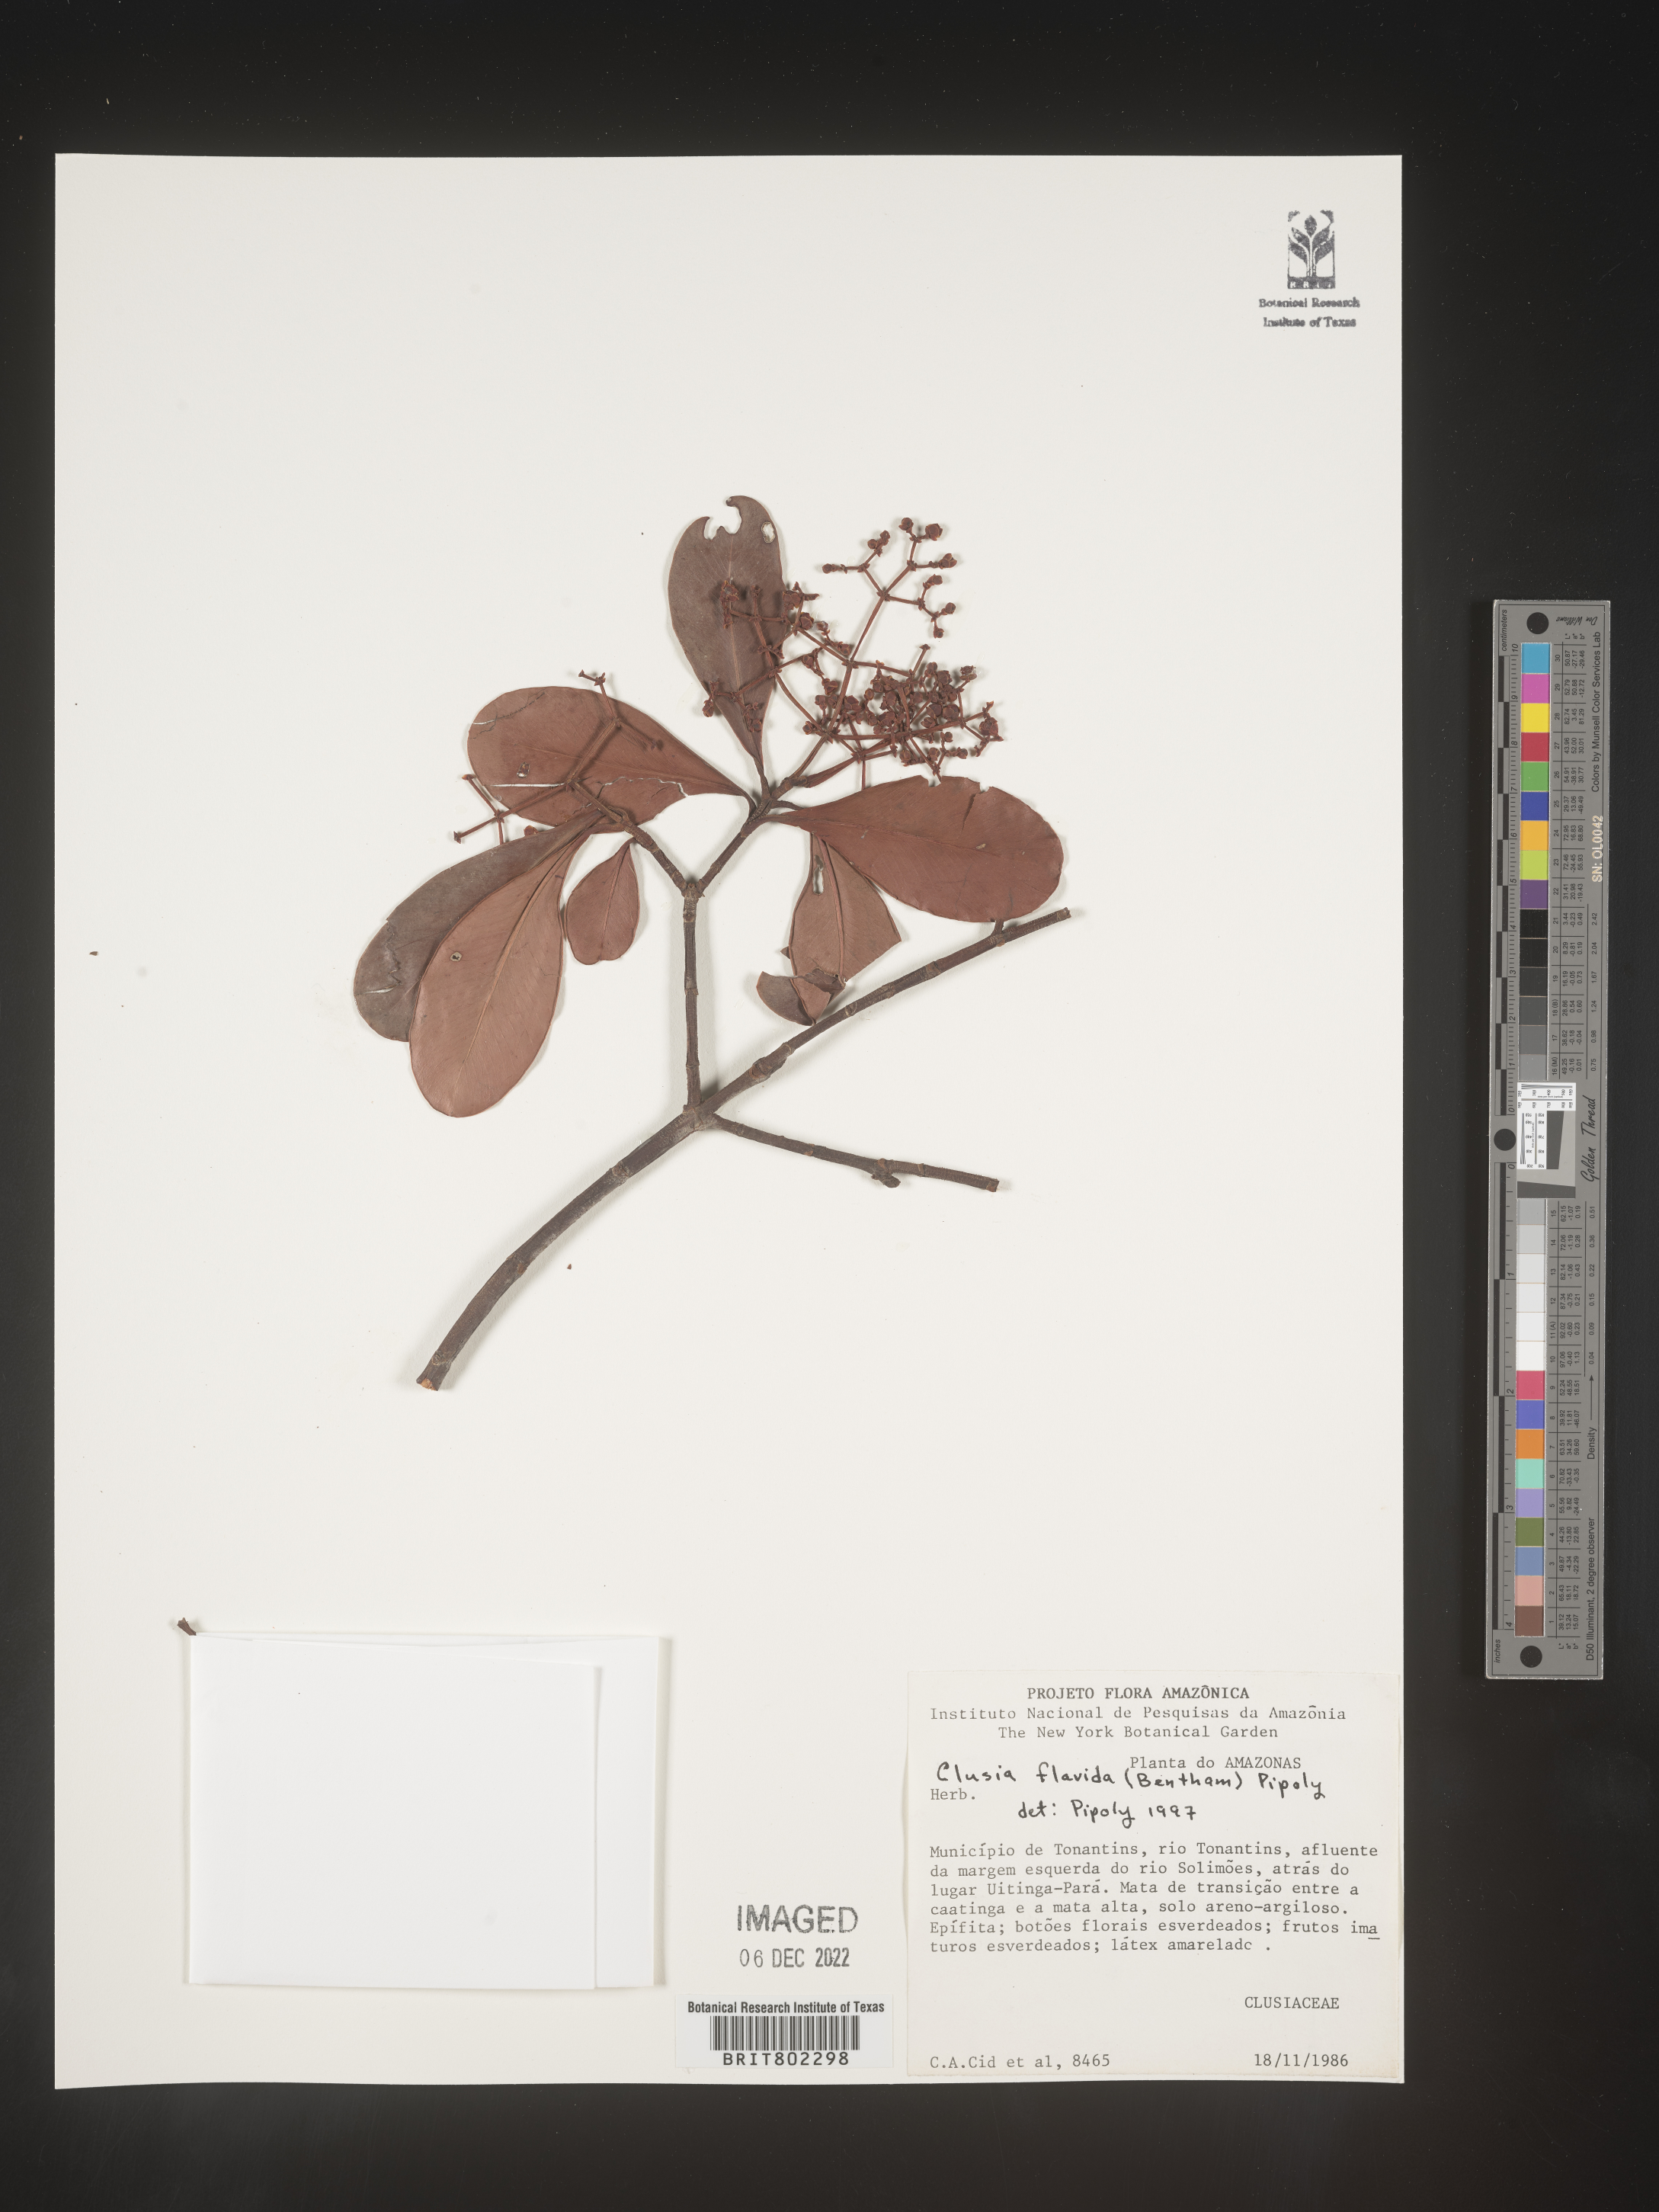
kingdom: Plantae
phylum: Tracheophyta
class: Magnoliopsida
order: Malpighiales
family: Clusiaceae
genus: Clusia
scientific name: Clusia flavida
